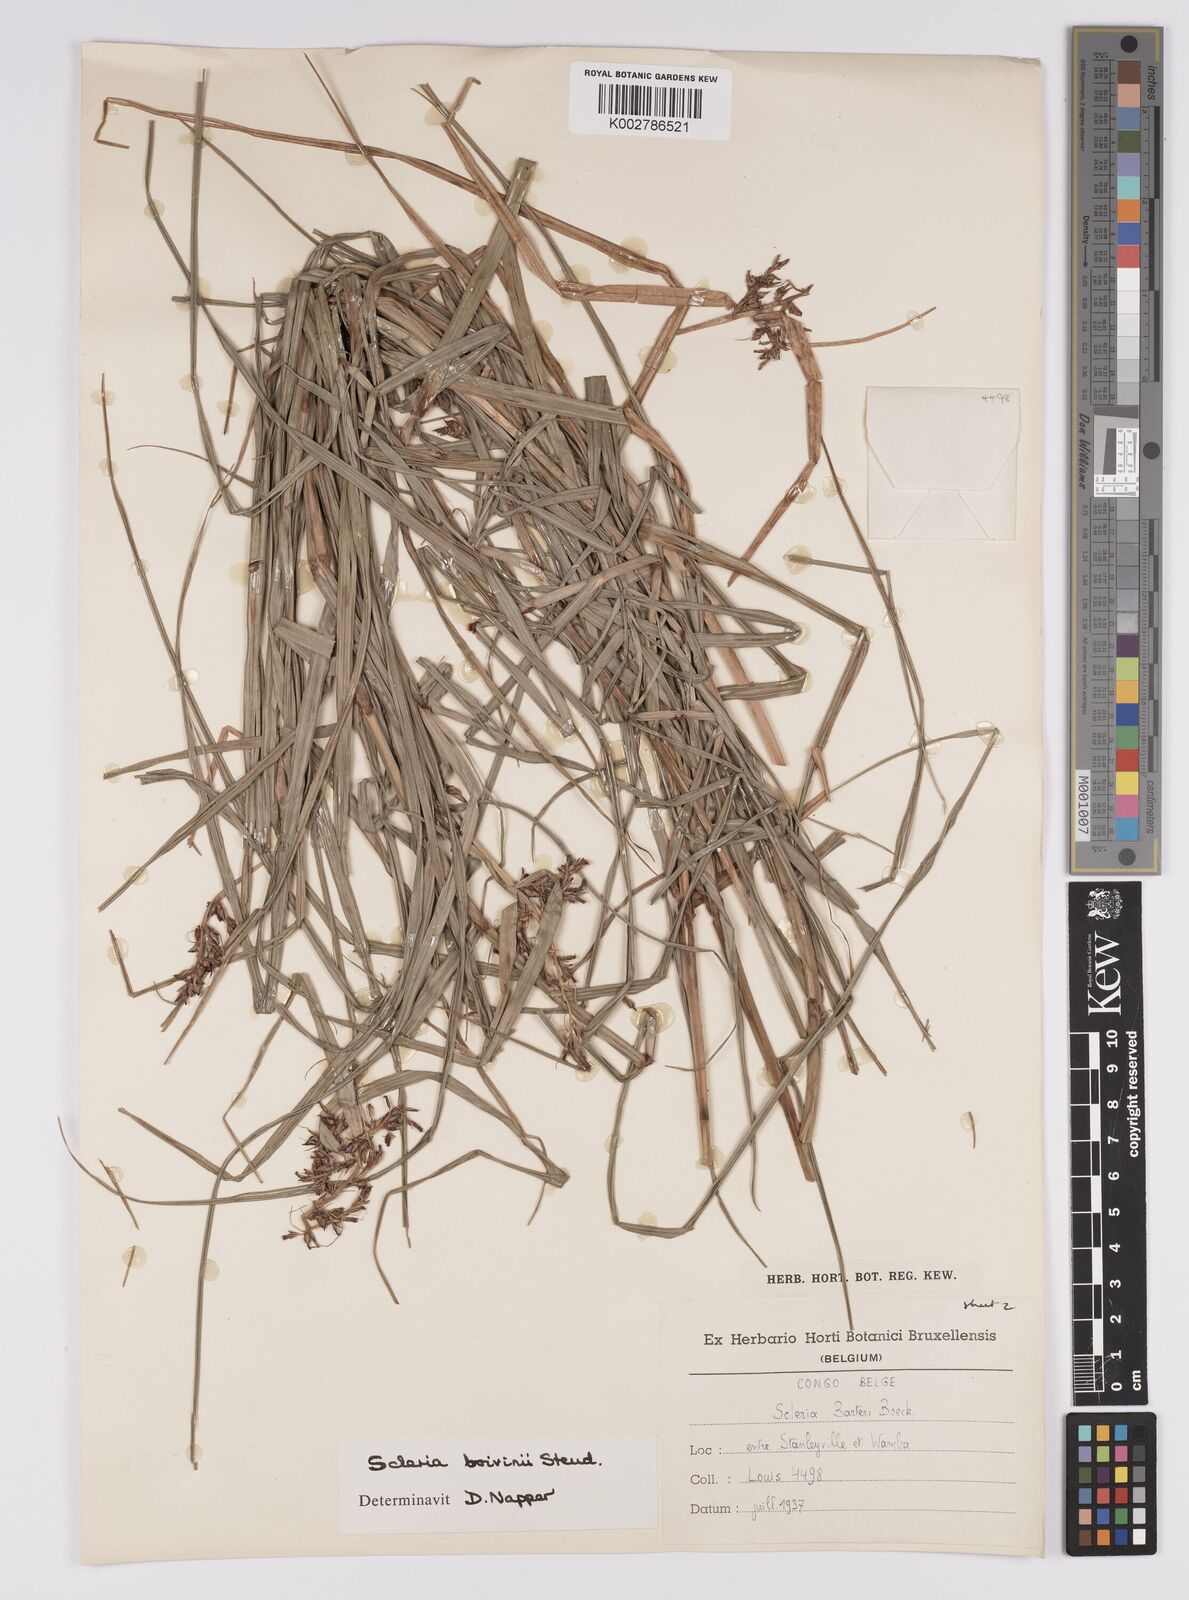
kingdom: Plantae
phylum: Tracheophyta
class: Liliopsida
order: Poales
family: Cyperaceae
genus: Scleria
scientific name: Scleria boivinii
